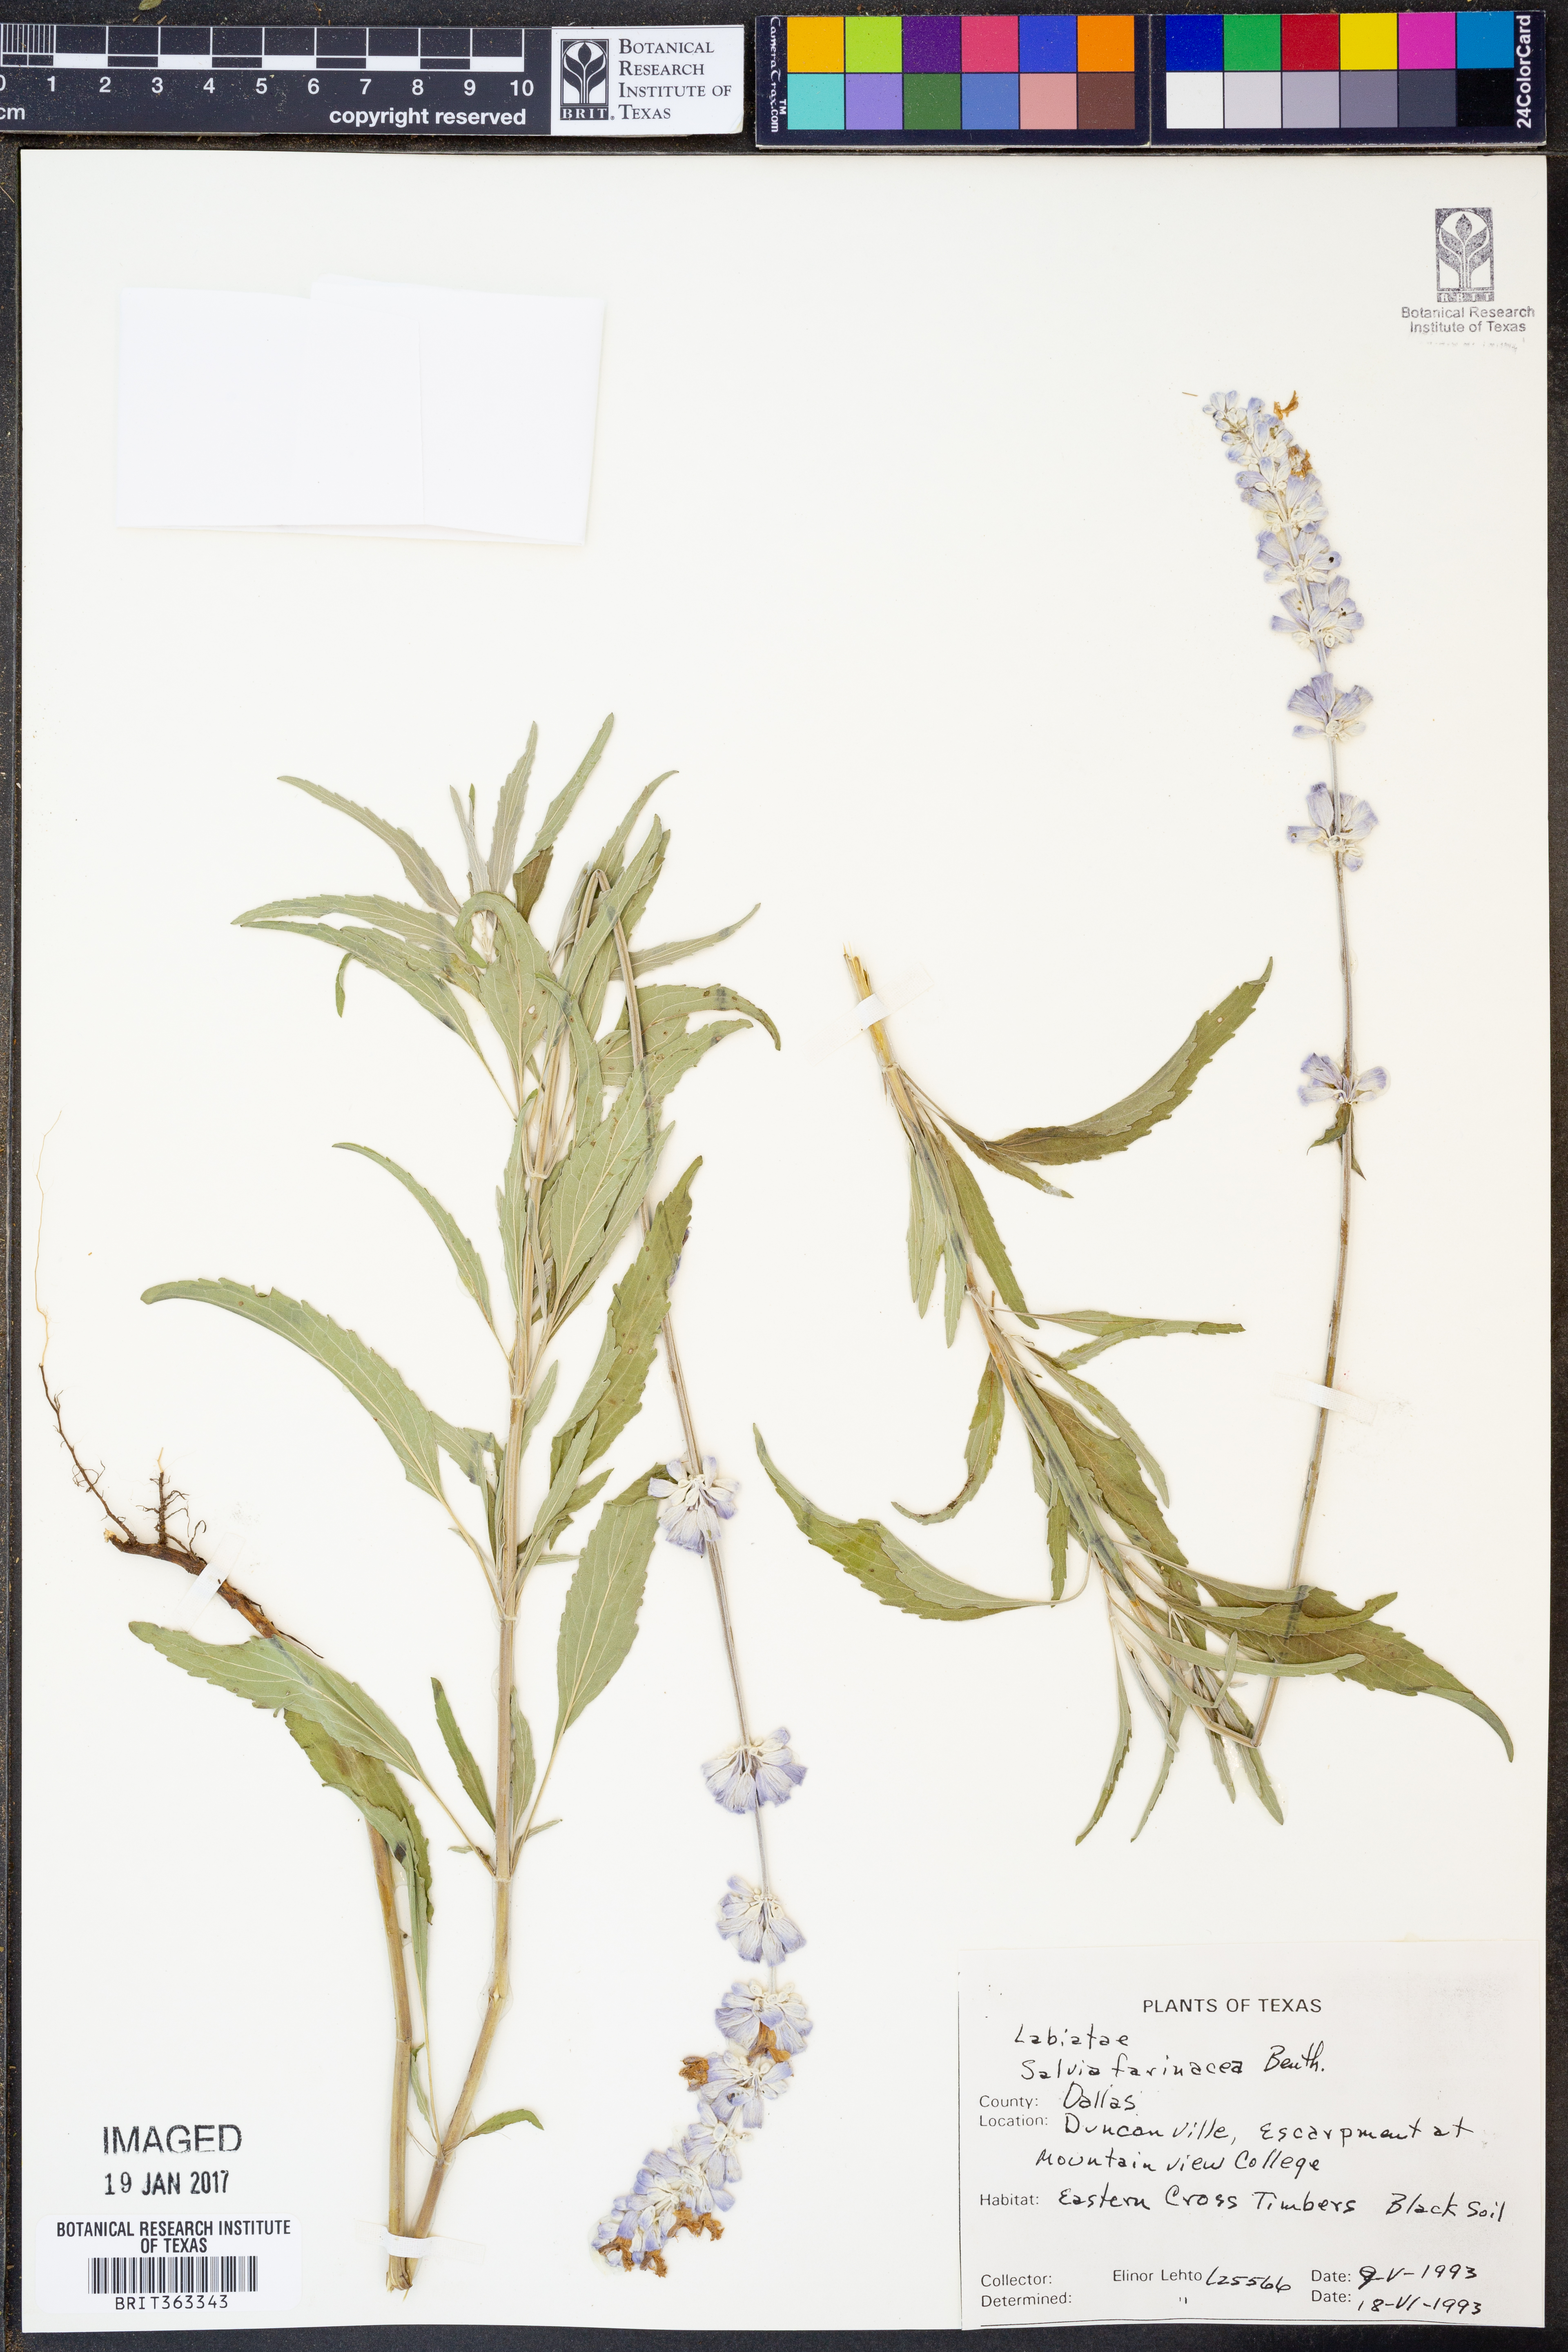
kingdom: Plantae
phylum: Tracheophyta
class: Magnoliopsida
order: Lamiales
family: Lamiaceae
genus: Salvia
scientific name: Salvia farinacea
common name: Mealy sage
